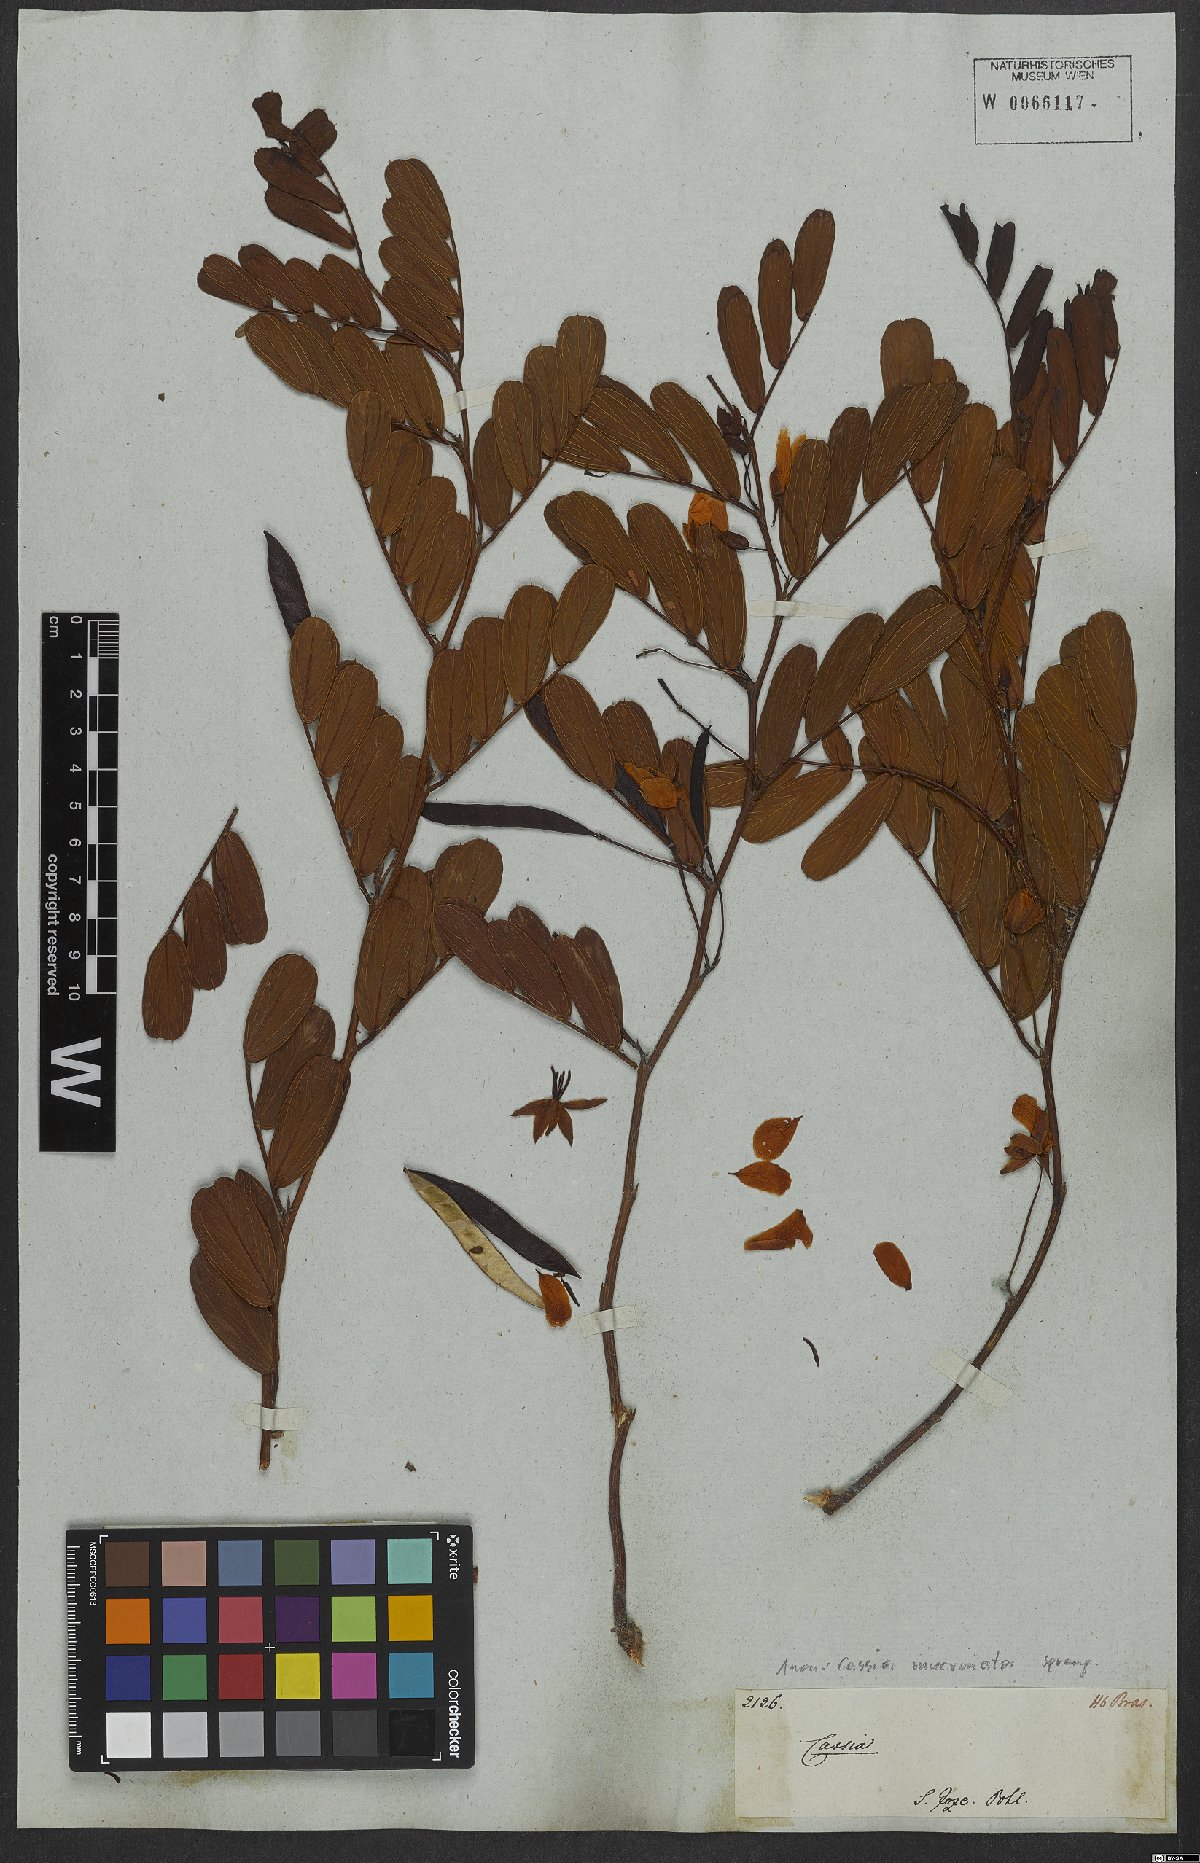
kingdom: Plantae
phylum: Tracheophyta
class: Magnoliopsida
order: Fabales
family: Fabaceae
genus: Chamaecrista
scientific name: Chamaecrista mucronata
